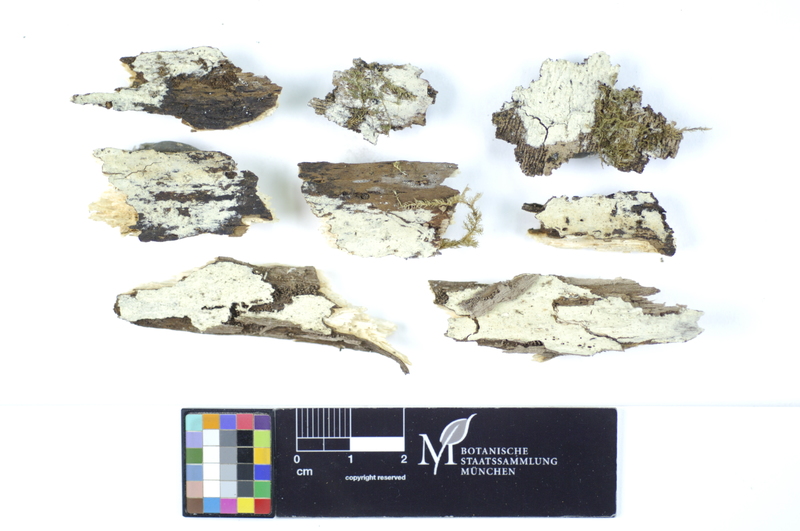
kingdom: Plantae
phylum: Tracheophyta
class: Magnoliopsida
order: Fagales
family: Fagaceae
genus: Fagus
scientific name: Fagus sylvatica
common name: Beech
